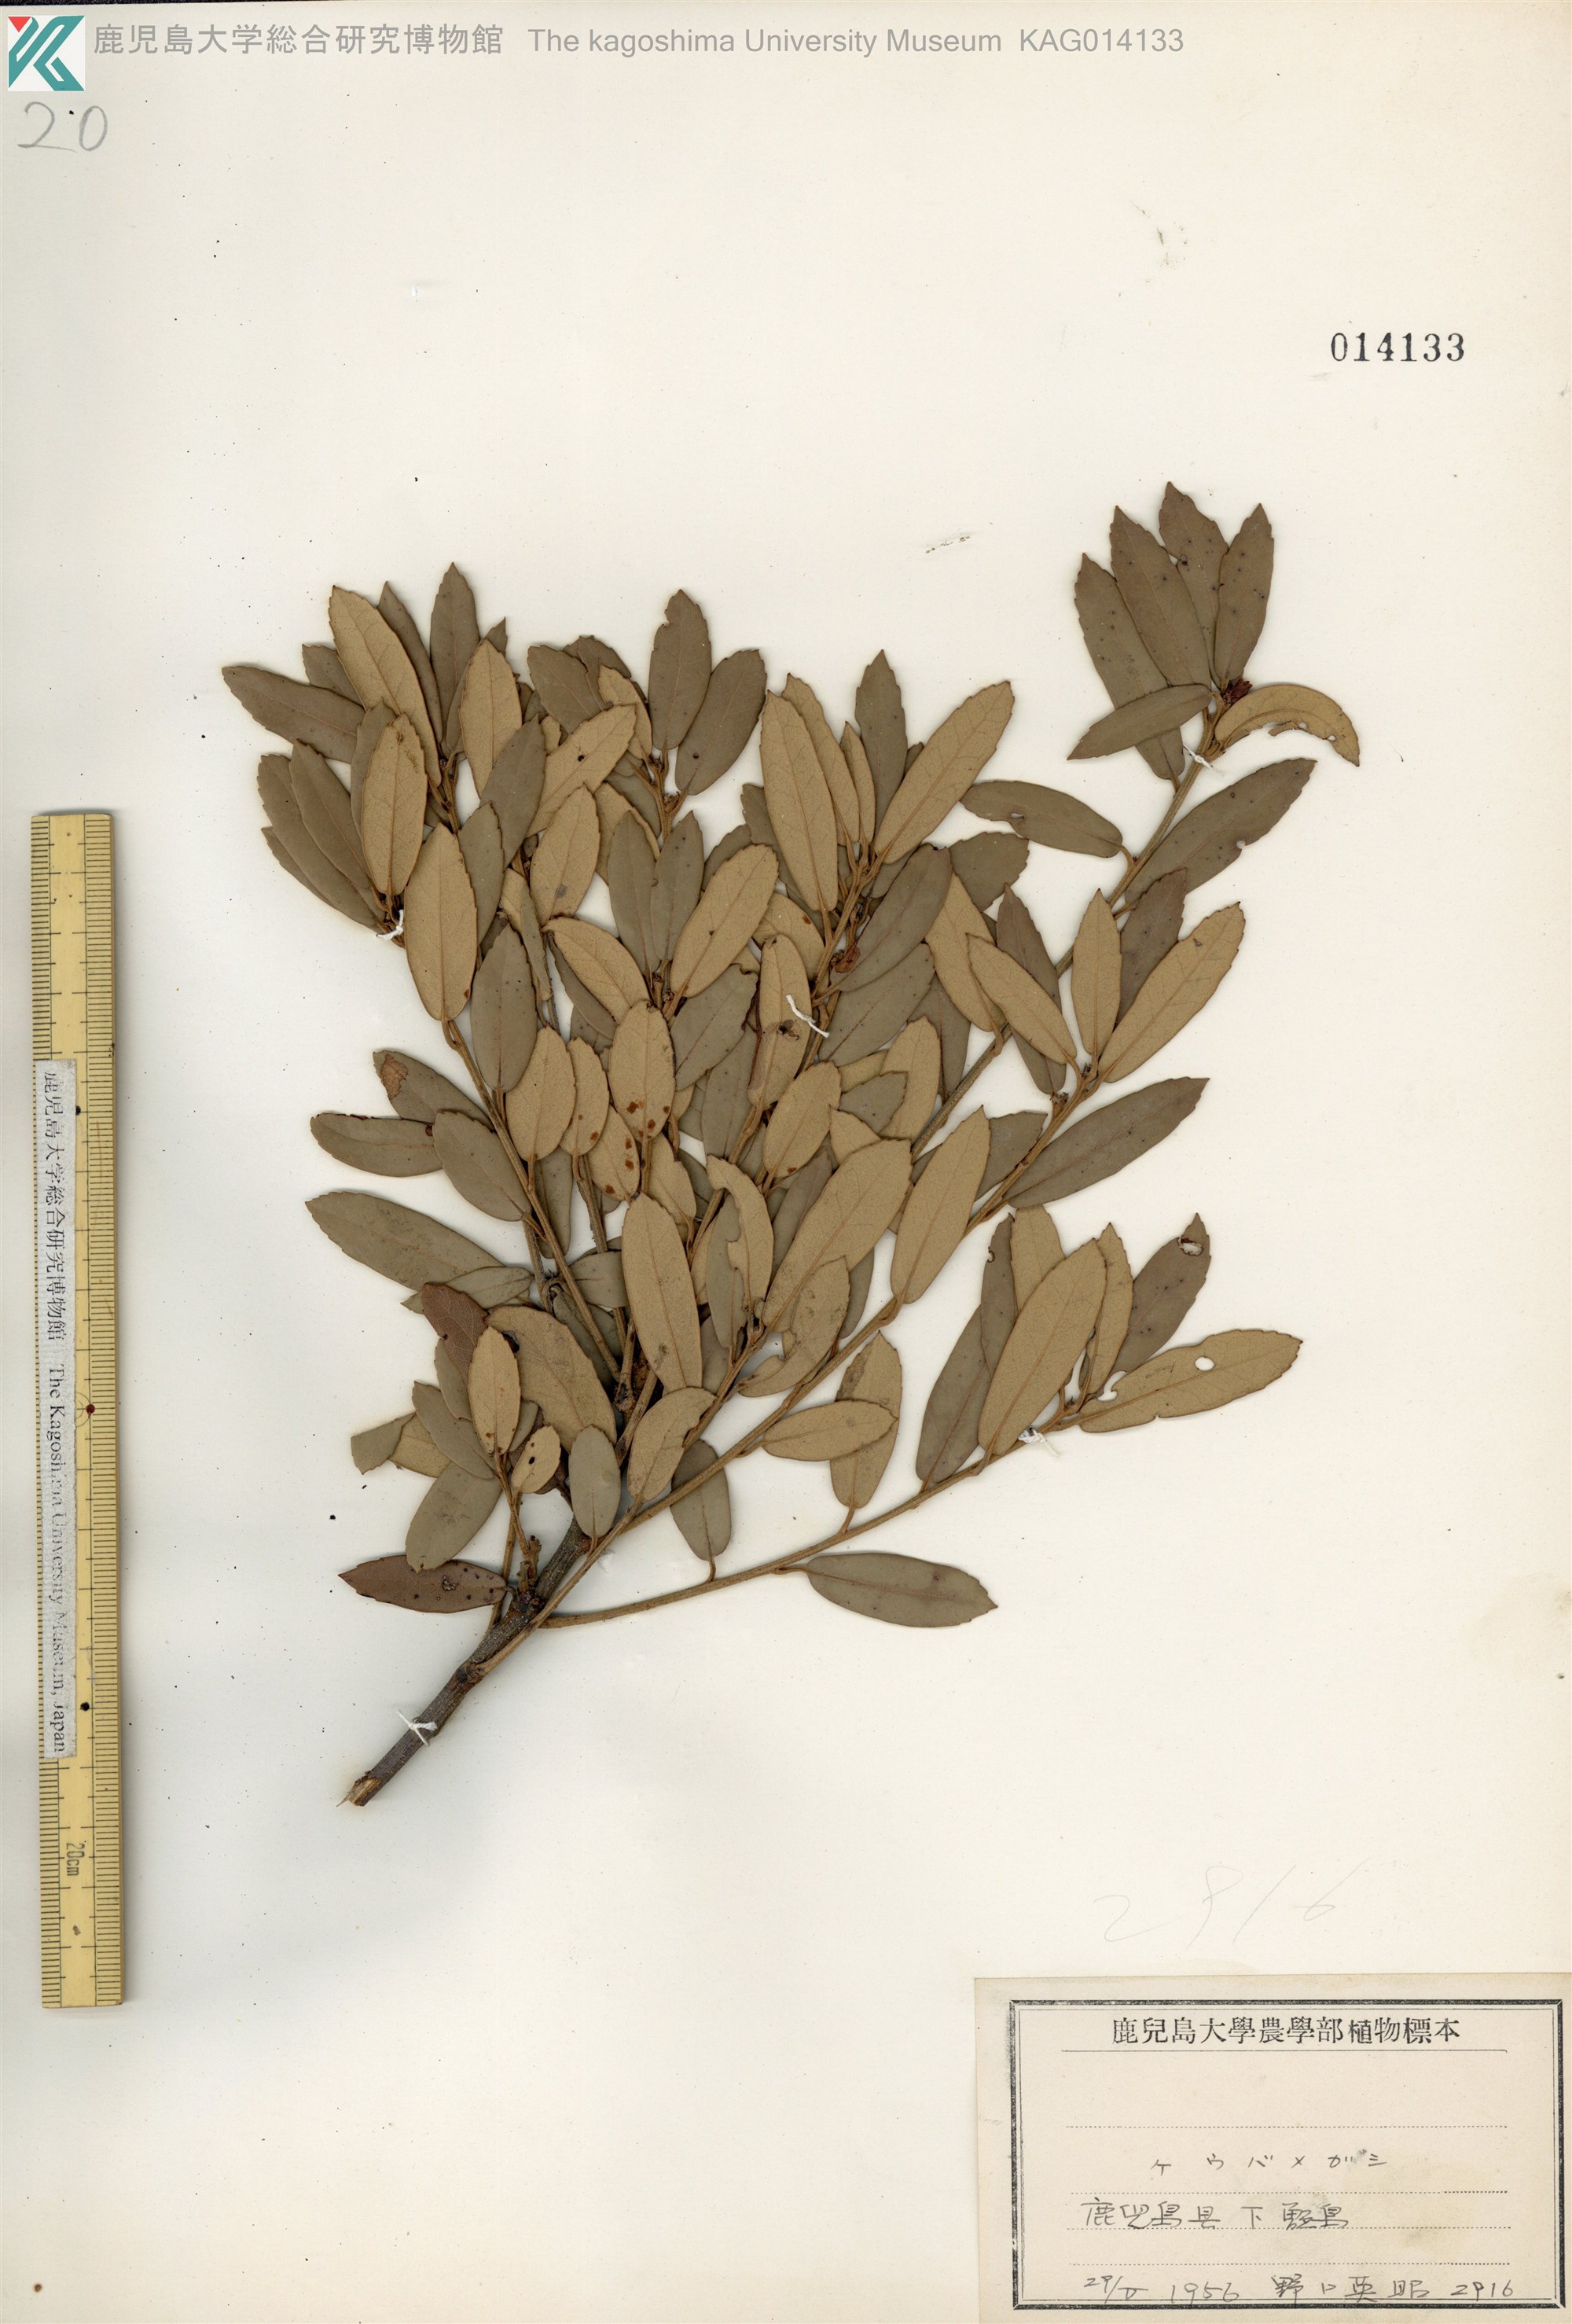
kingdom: Plantae
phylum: Tracheophyta
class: Magnoliopsida
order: Fagales
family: Fagaceae
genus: Quercus
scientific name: Quercus phillyreoides
